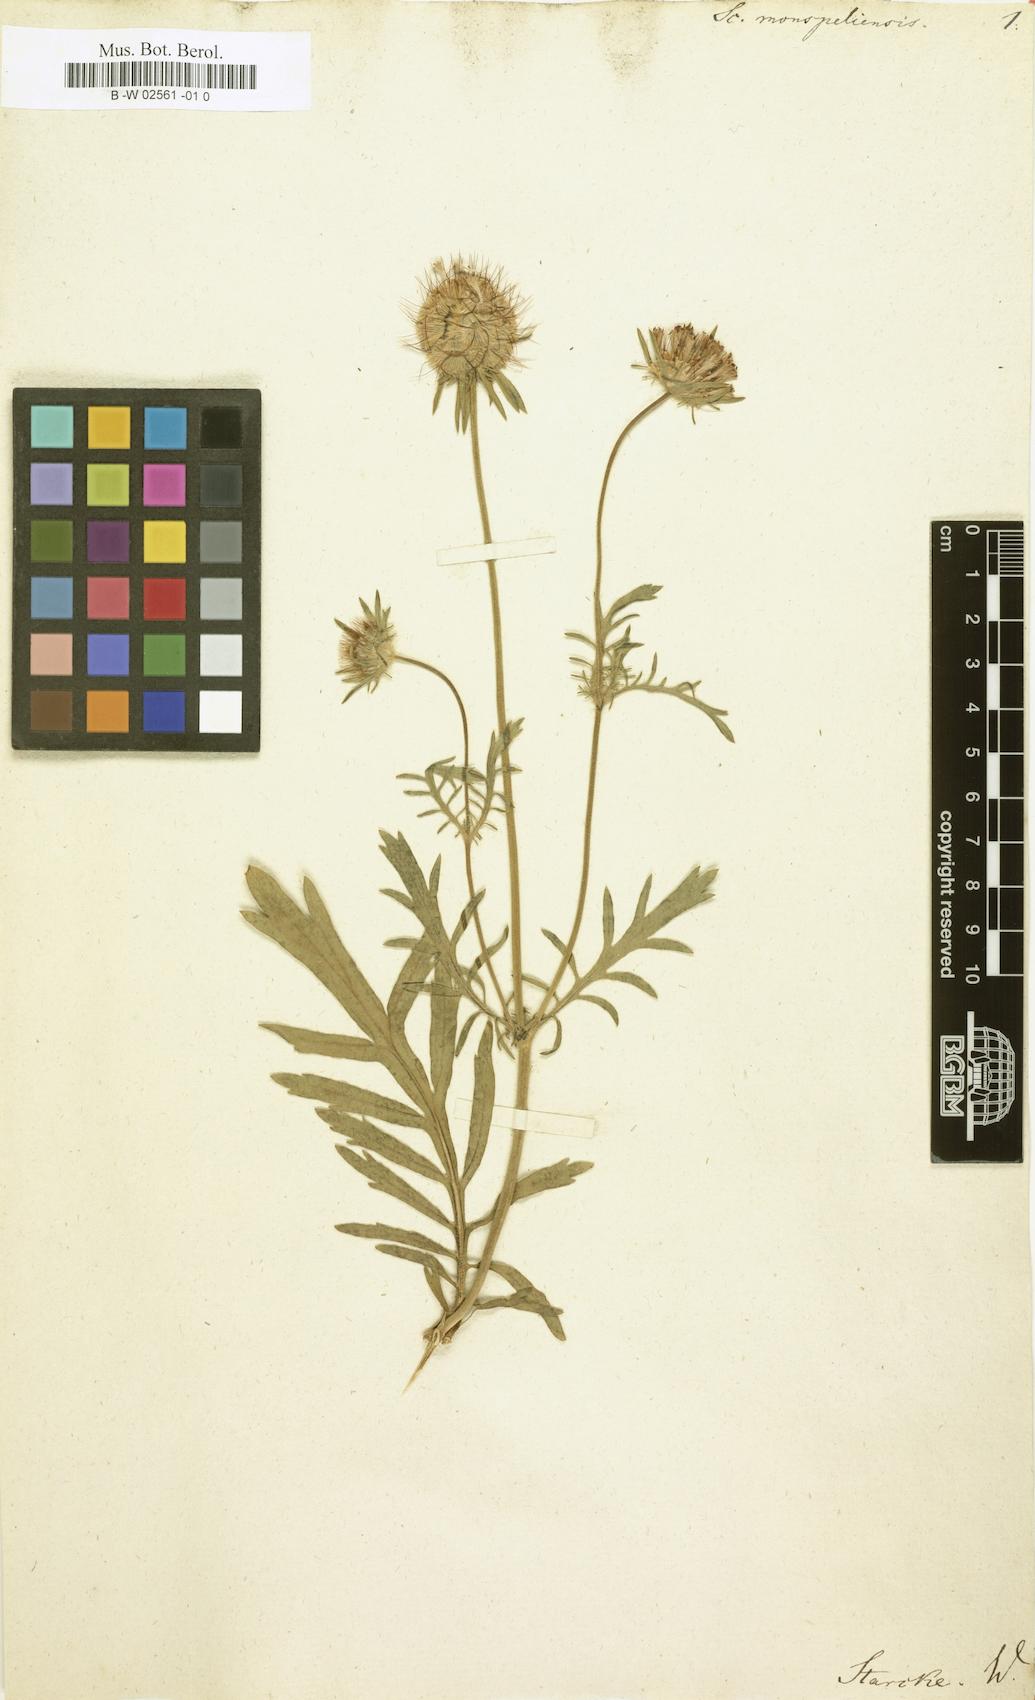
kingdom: Plantae
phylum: Tracheophyta
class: Magnoliopsida
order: Dipsacales
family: Caprifoliaceae
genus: Scabiosa
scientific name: Scabiosa monspeliensis
